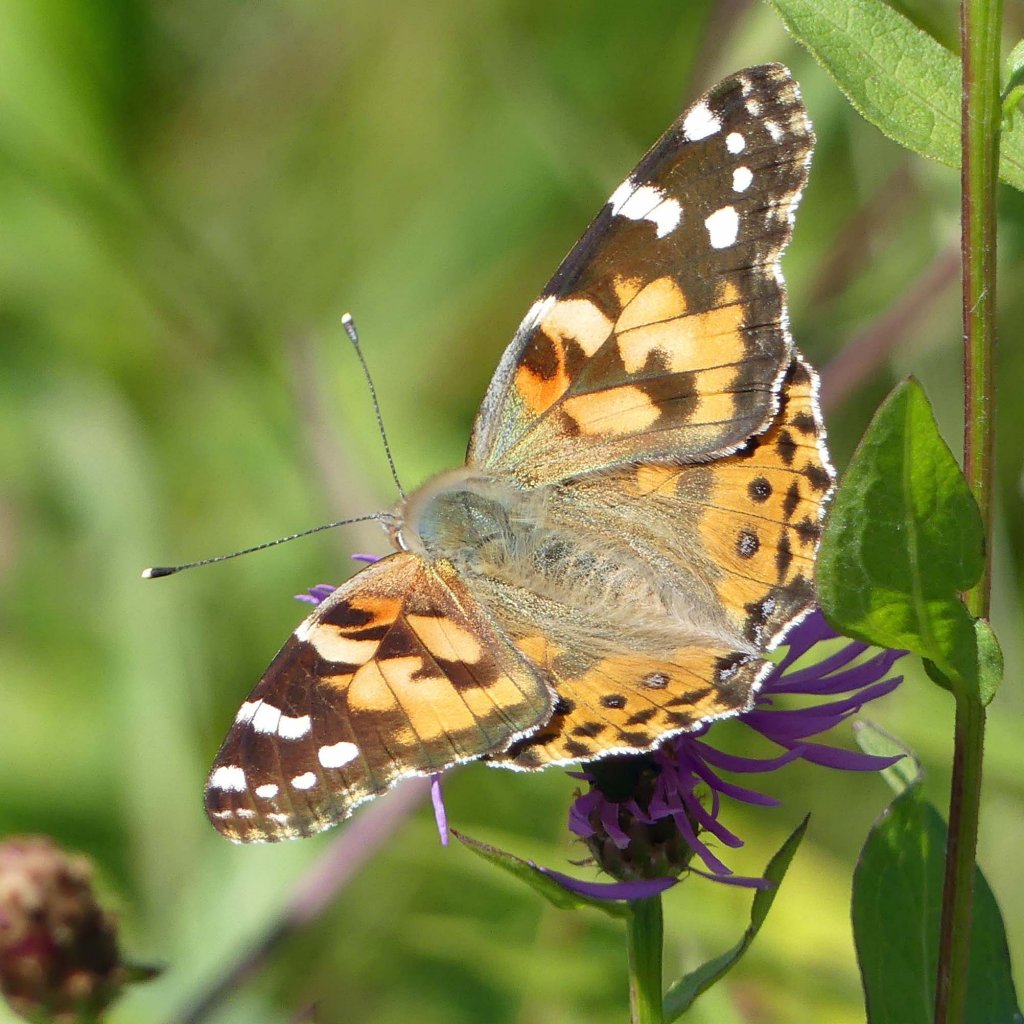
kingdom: Animalia
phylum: Arthropoda
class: Insecta
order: Lepidoptera
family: Nymphalidae
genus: Vanessa
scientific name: Vanessa cardui
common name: Painted Lady
